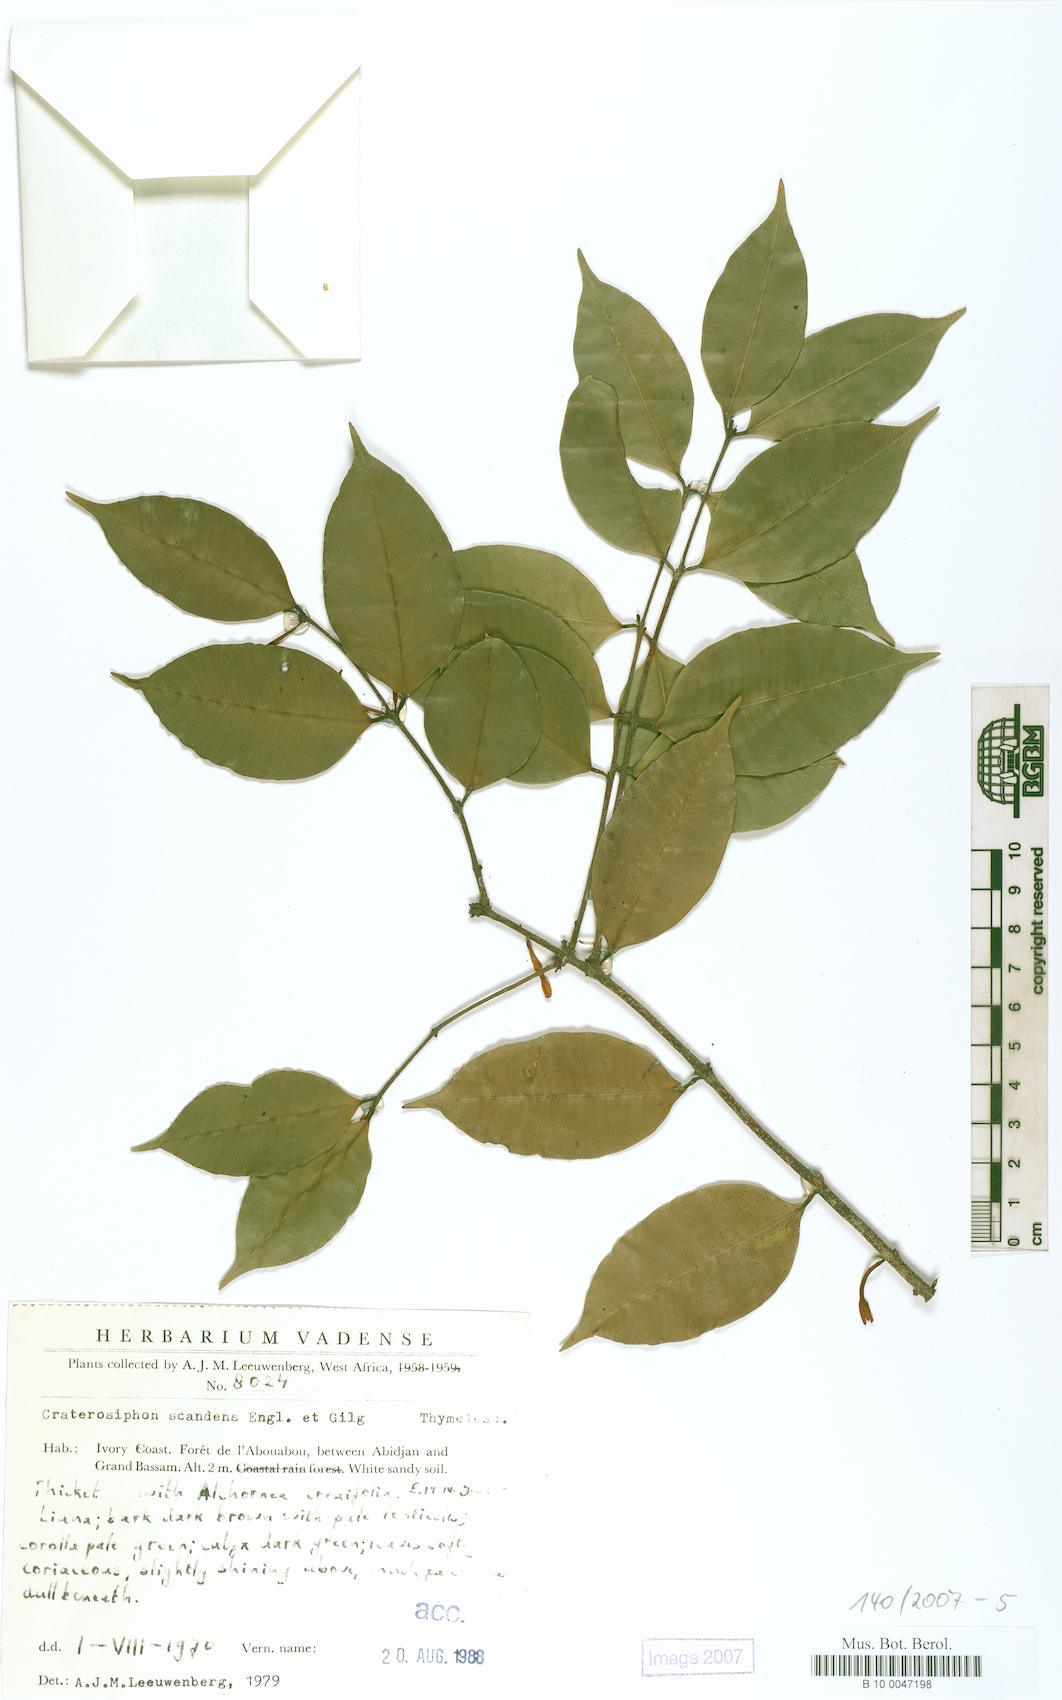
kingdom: Plantae
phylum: Tracheophyta
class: Magnoliopsida
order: Malvales
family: Thymelaeaceae
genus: Craterosiphon
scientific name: Craterosiphon scandens
